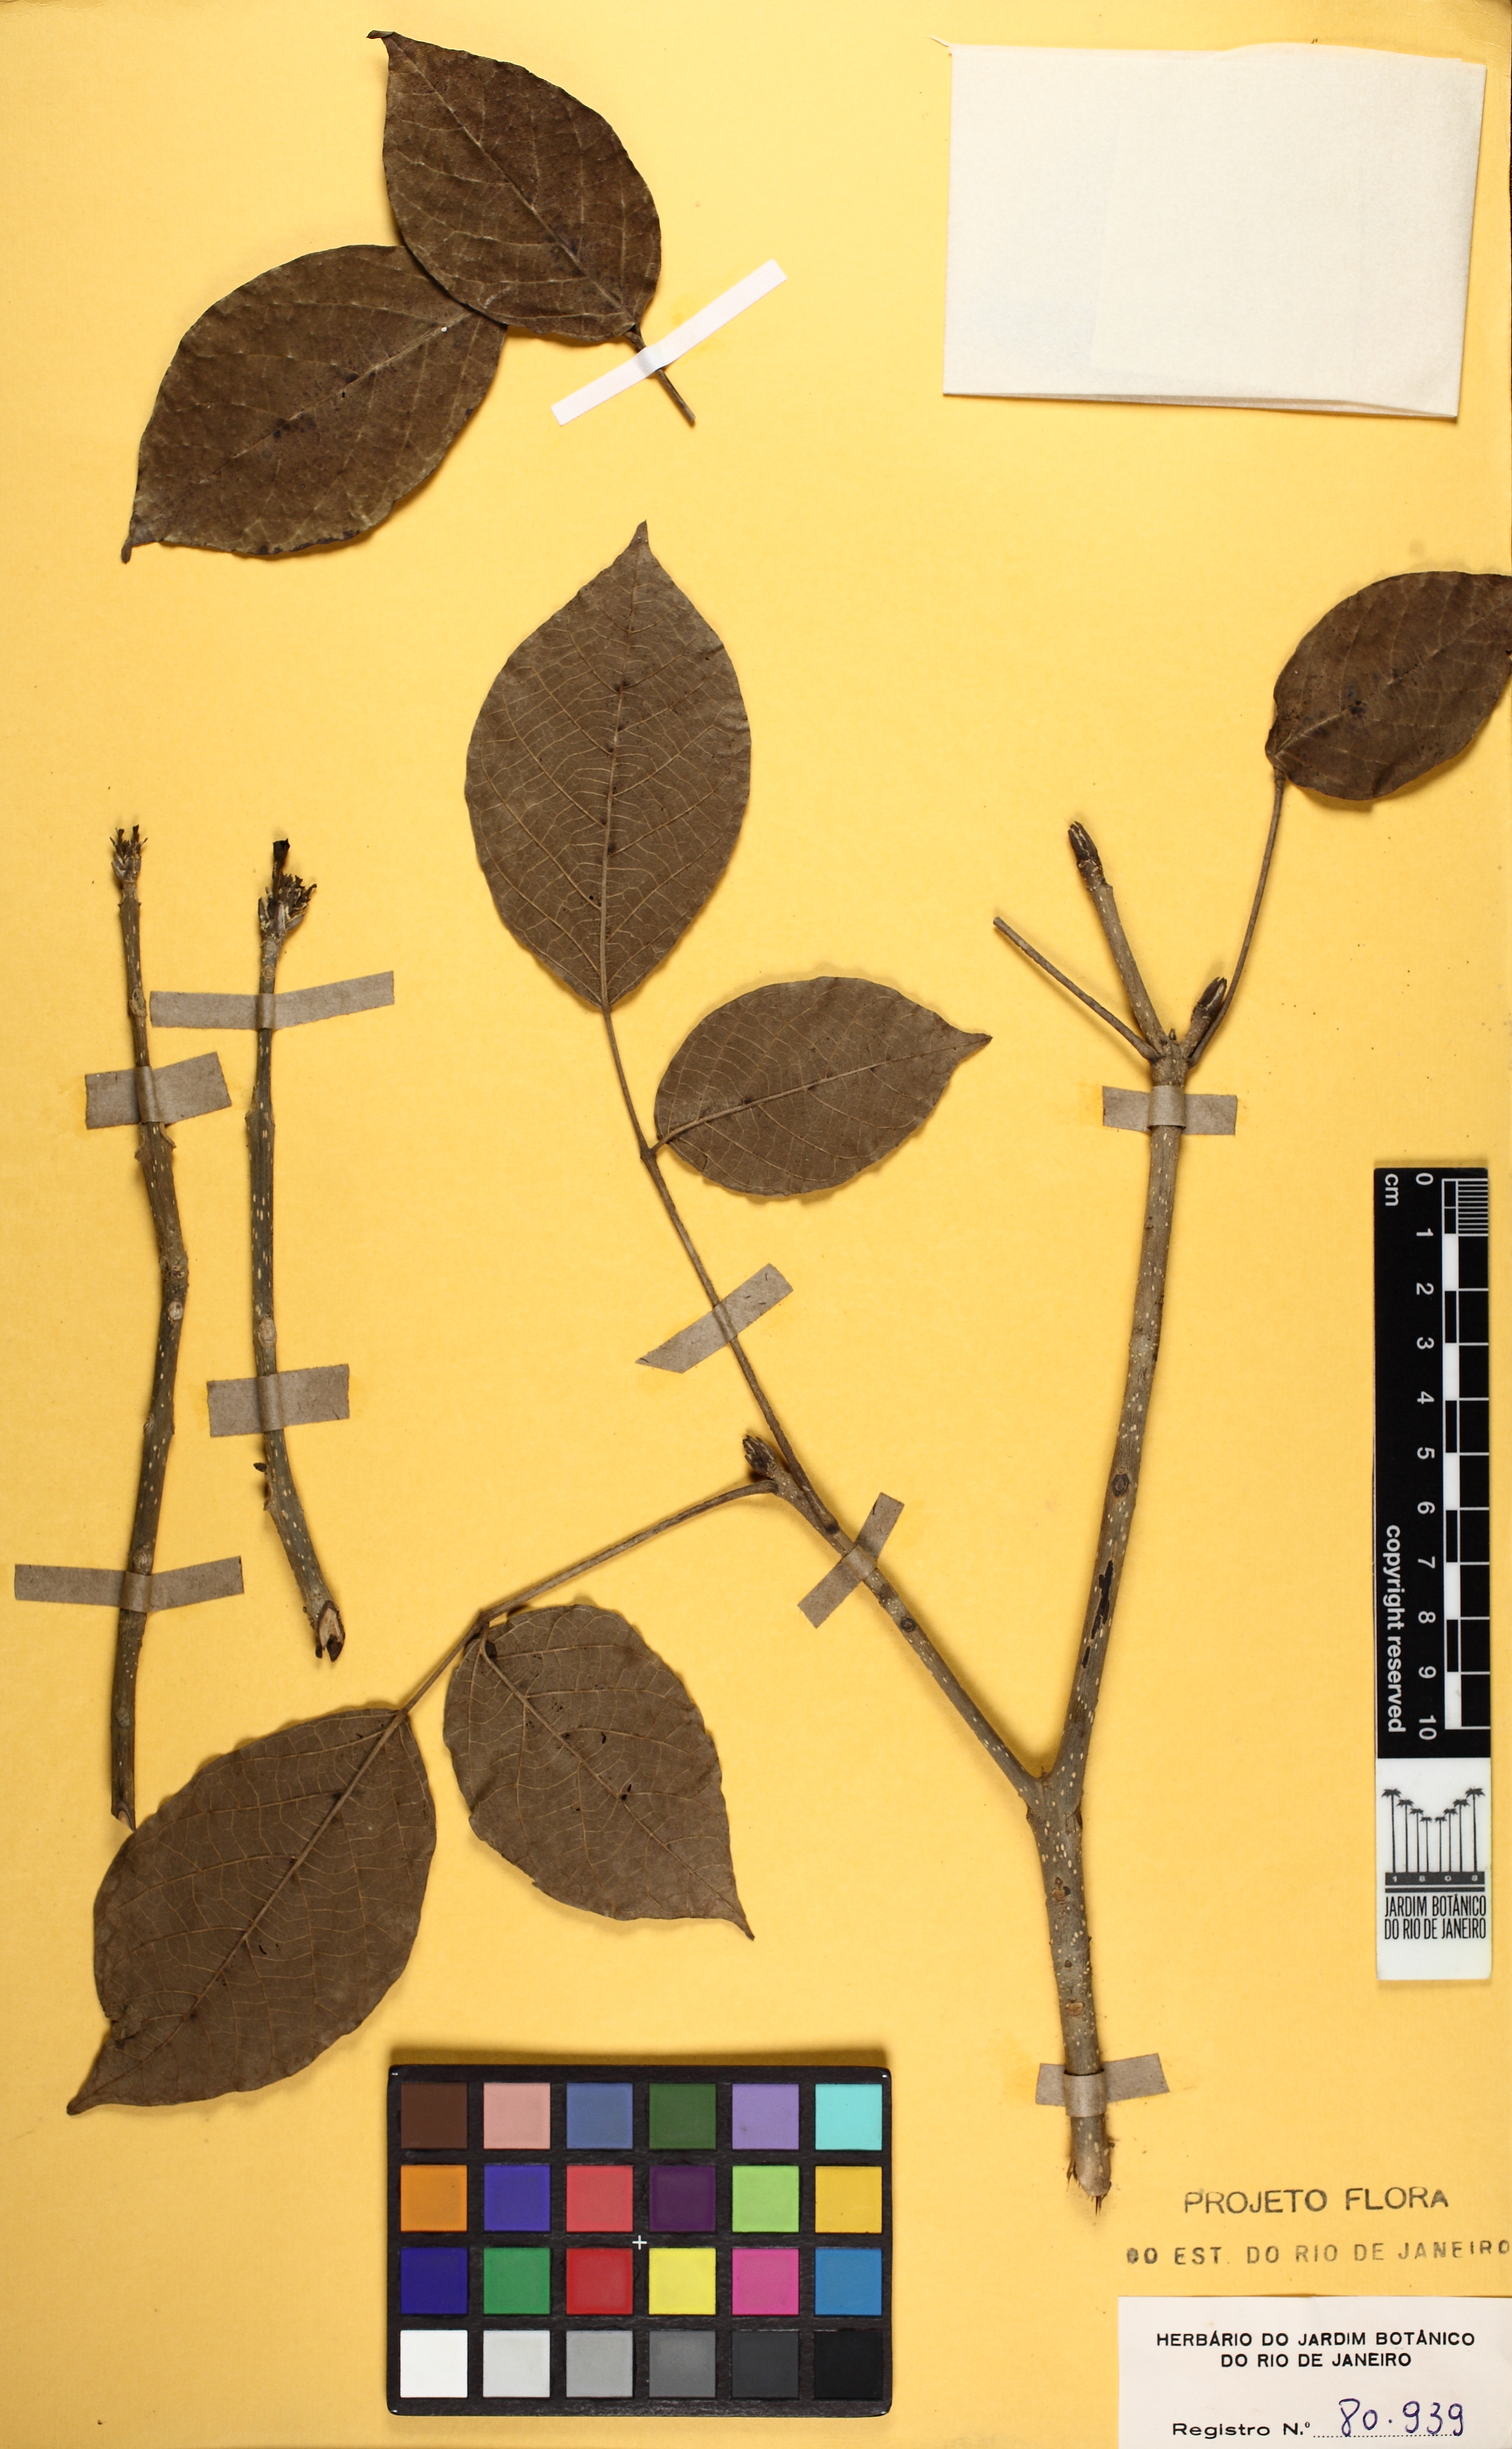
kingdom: Plantae
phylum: Tracheophyta
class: Magnoliopsida
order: Lamiales
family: Bignoniaceae
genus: Tabebuia
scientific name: Tabebuia roseoalba
